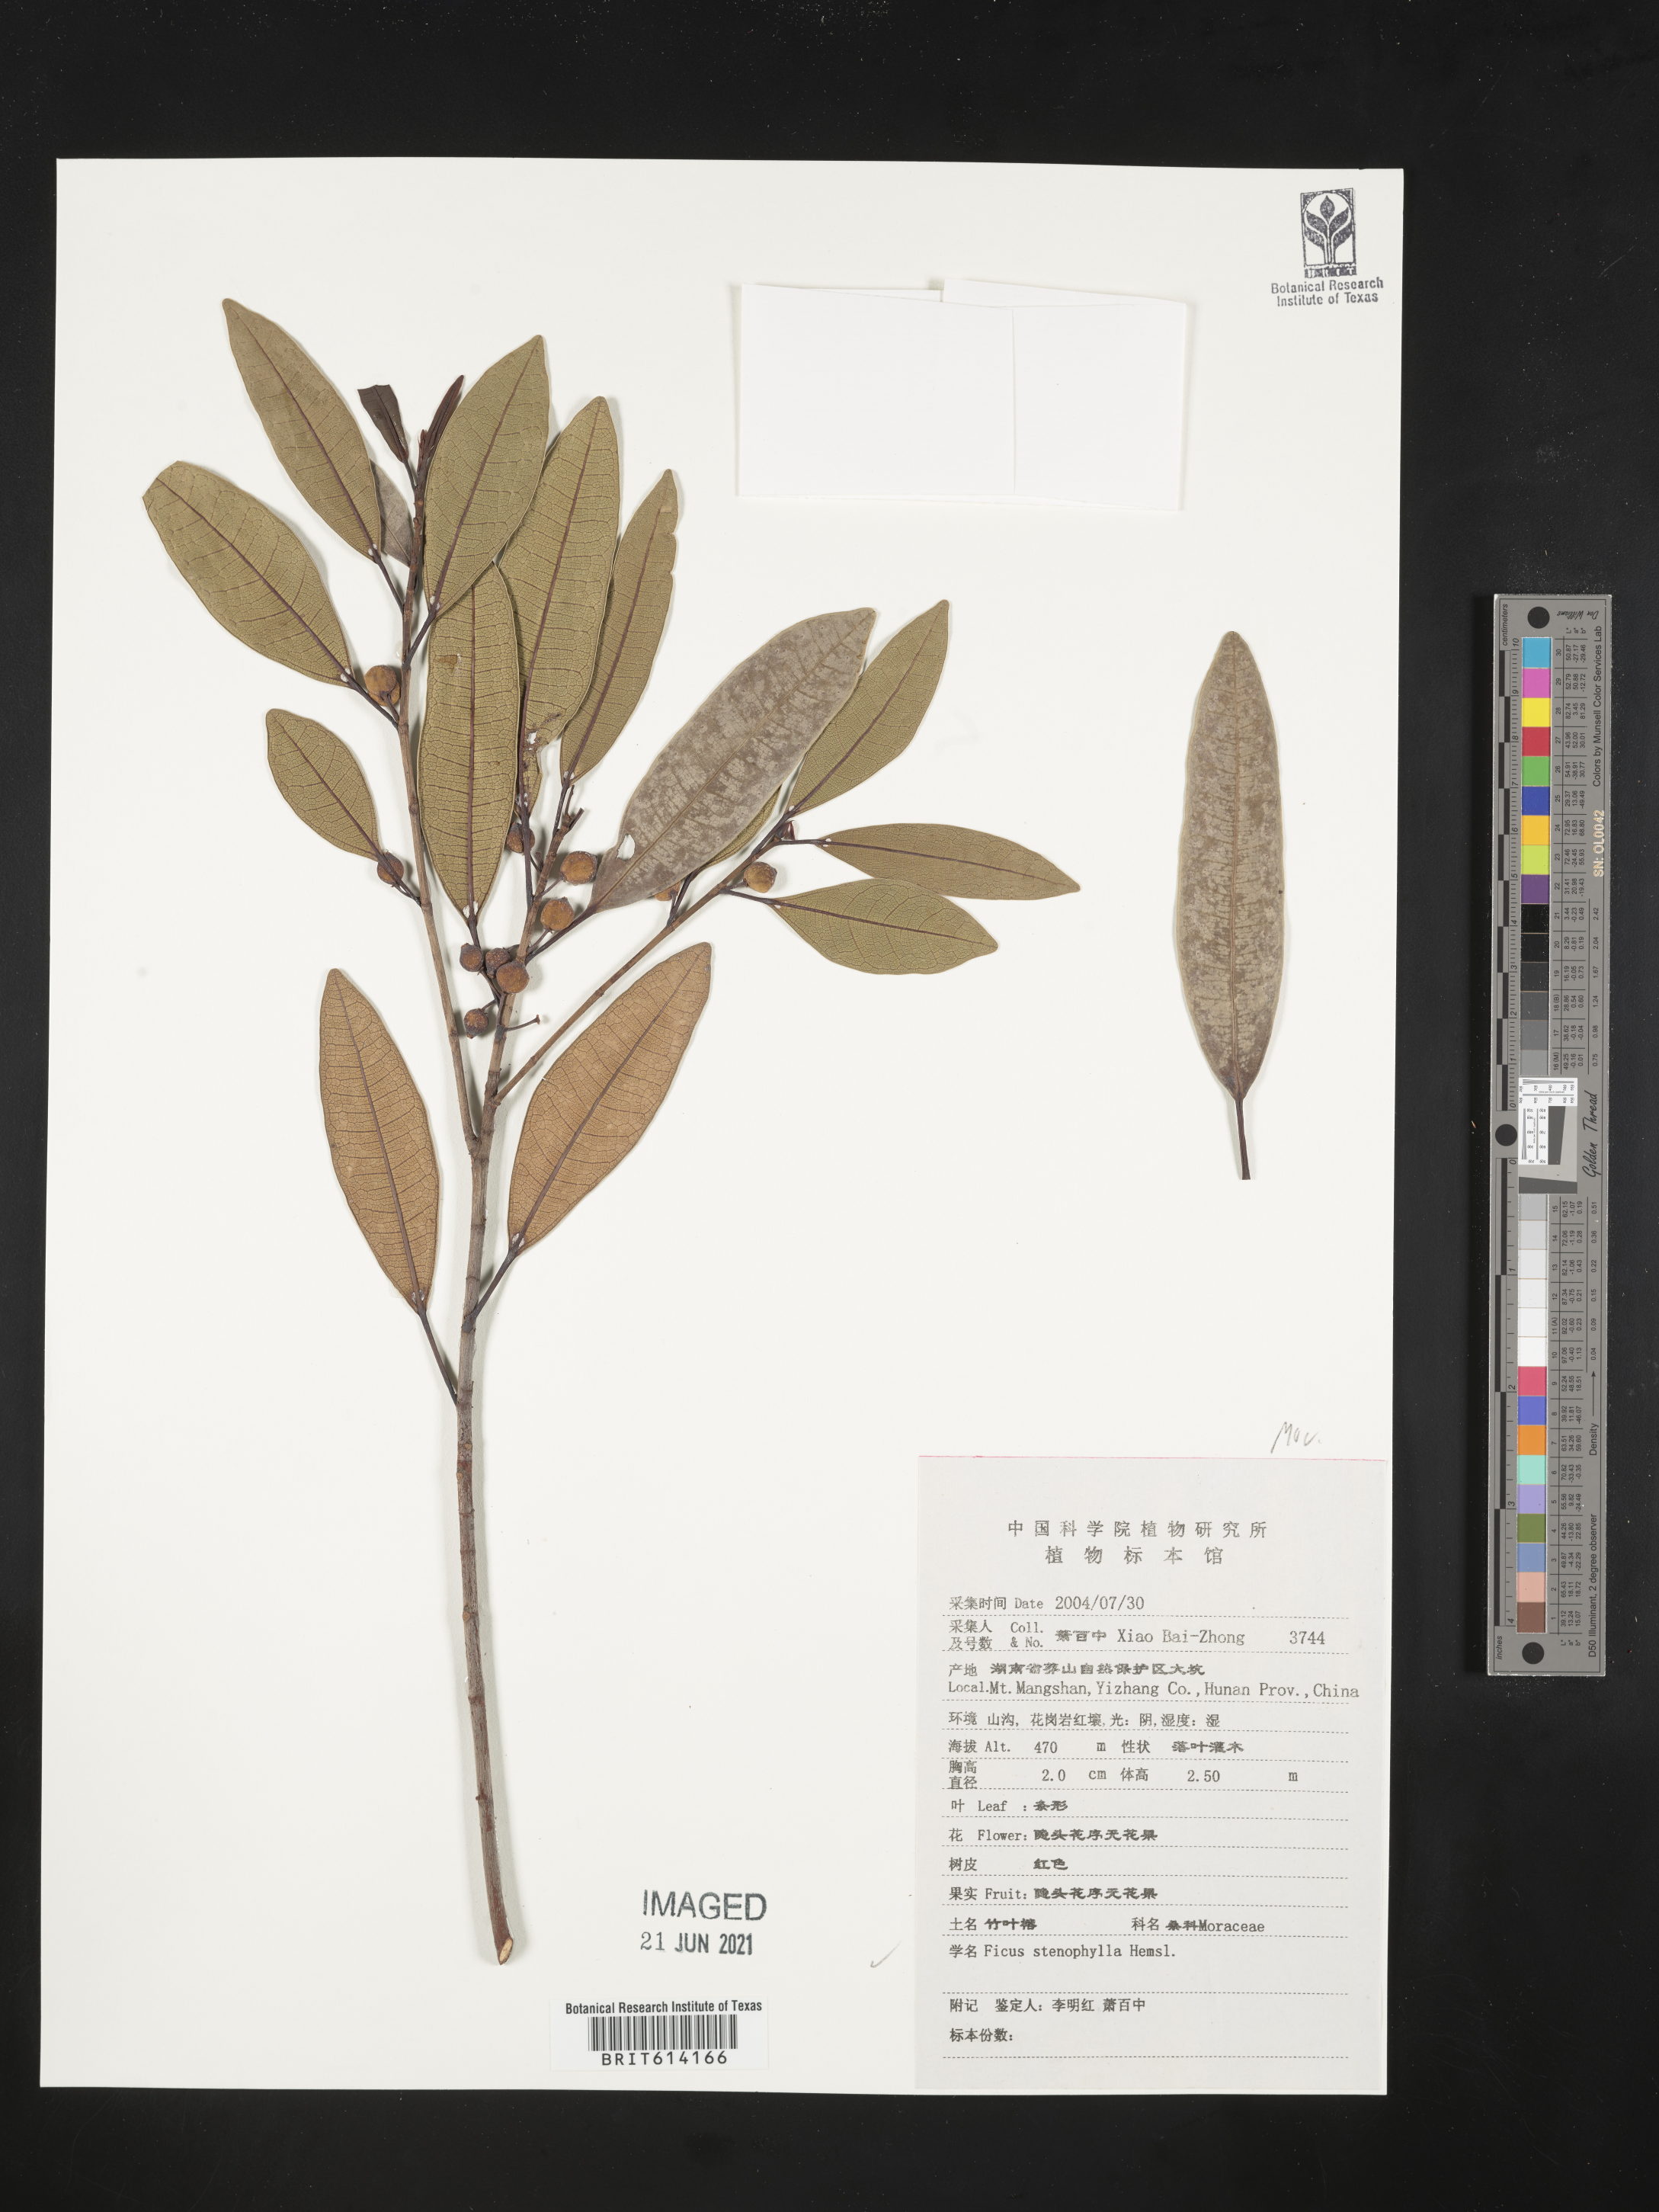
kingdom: Plantae
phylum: Tracheophyta
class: Magnoliopsida
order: Rosales
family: Moraceae
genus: Ficus
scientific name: Ficus macropodocarpa
